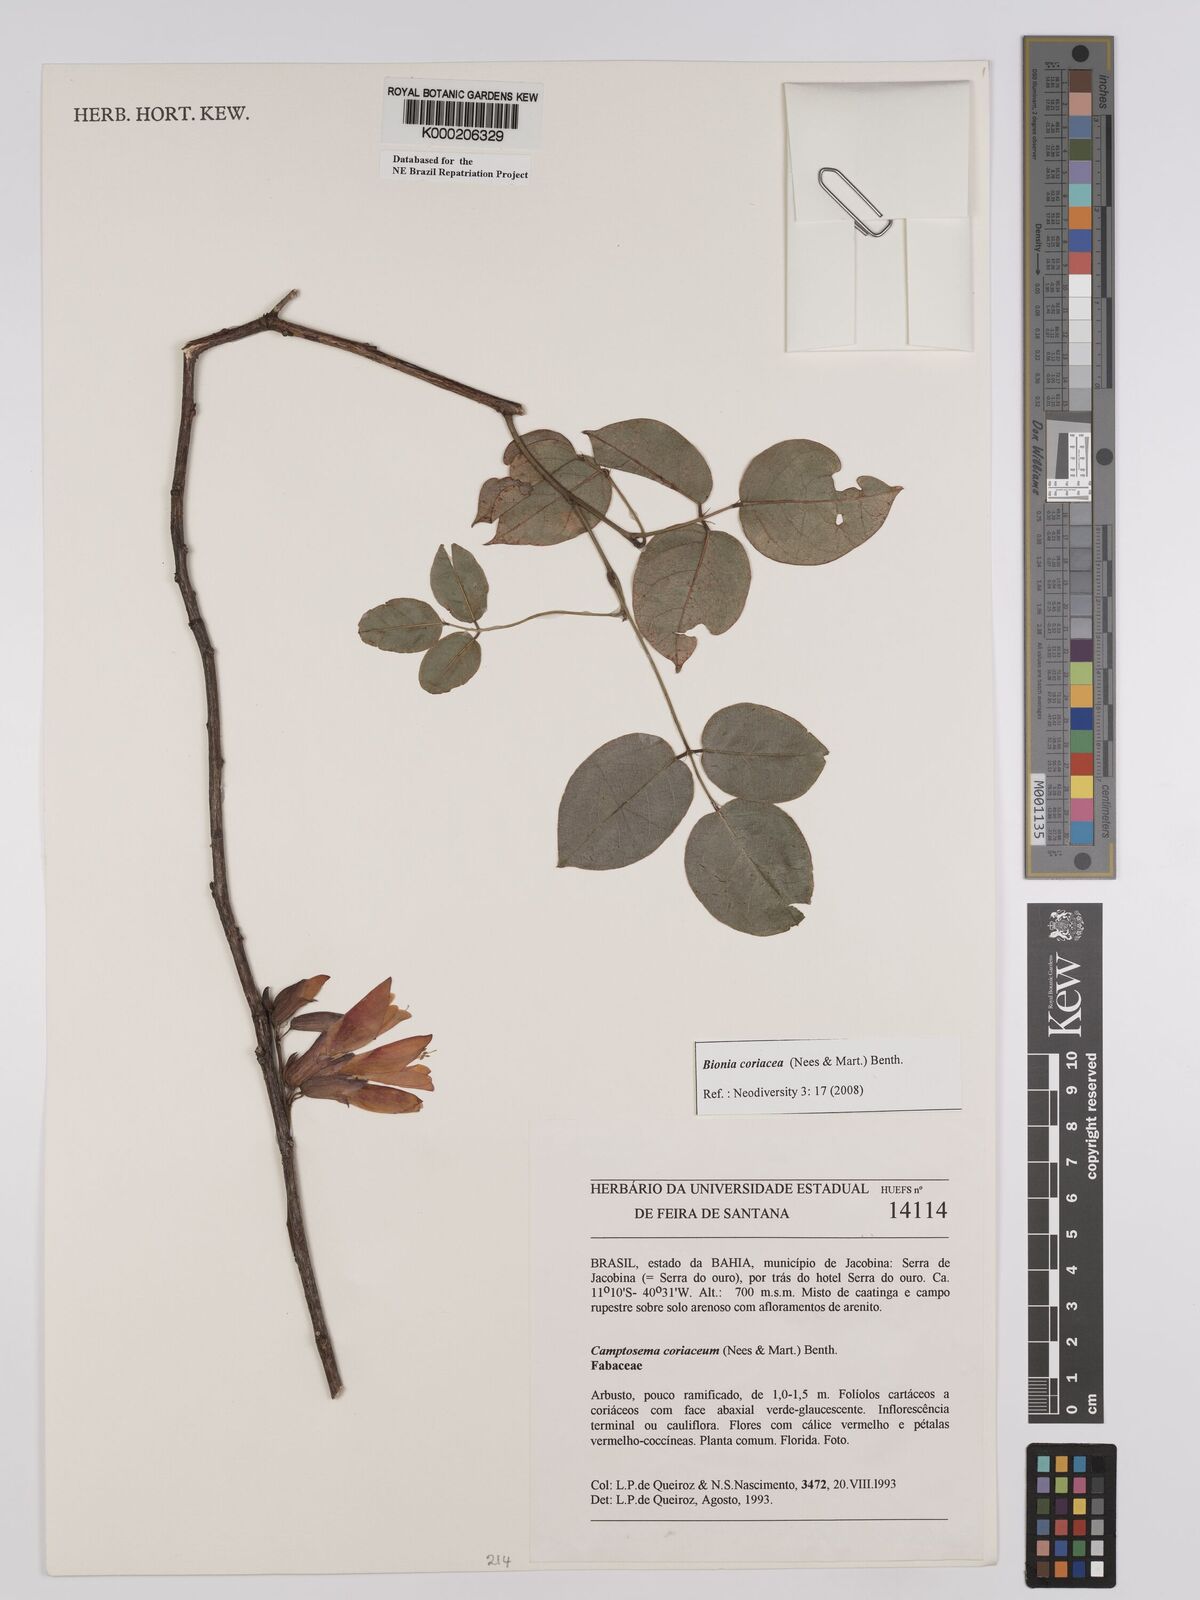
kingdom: Plantae
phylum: Tracheophyta
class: Magnoliopsida
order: Fabales
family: Fabaceae
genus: Camptosema
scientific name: Camptosema coriaceum
